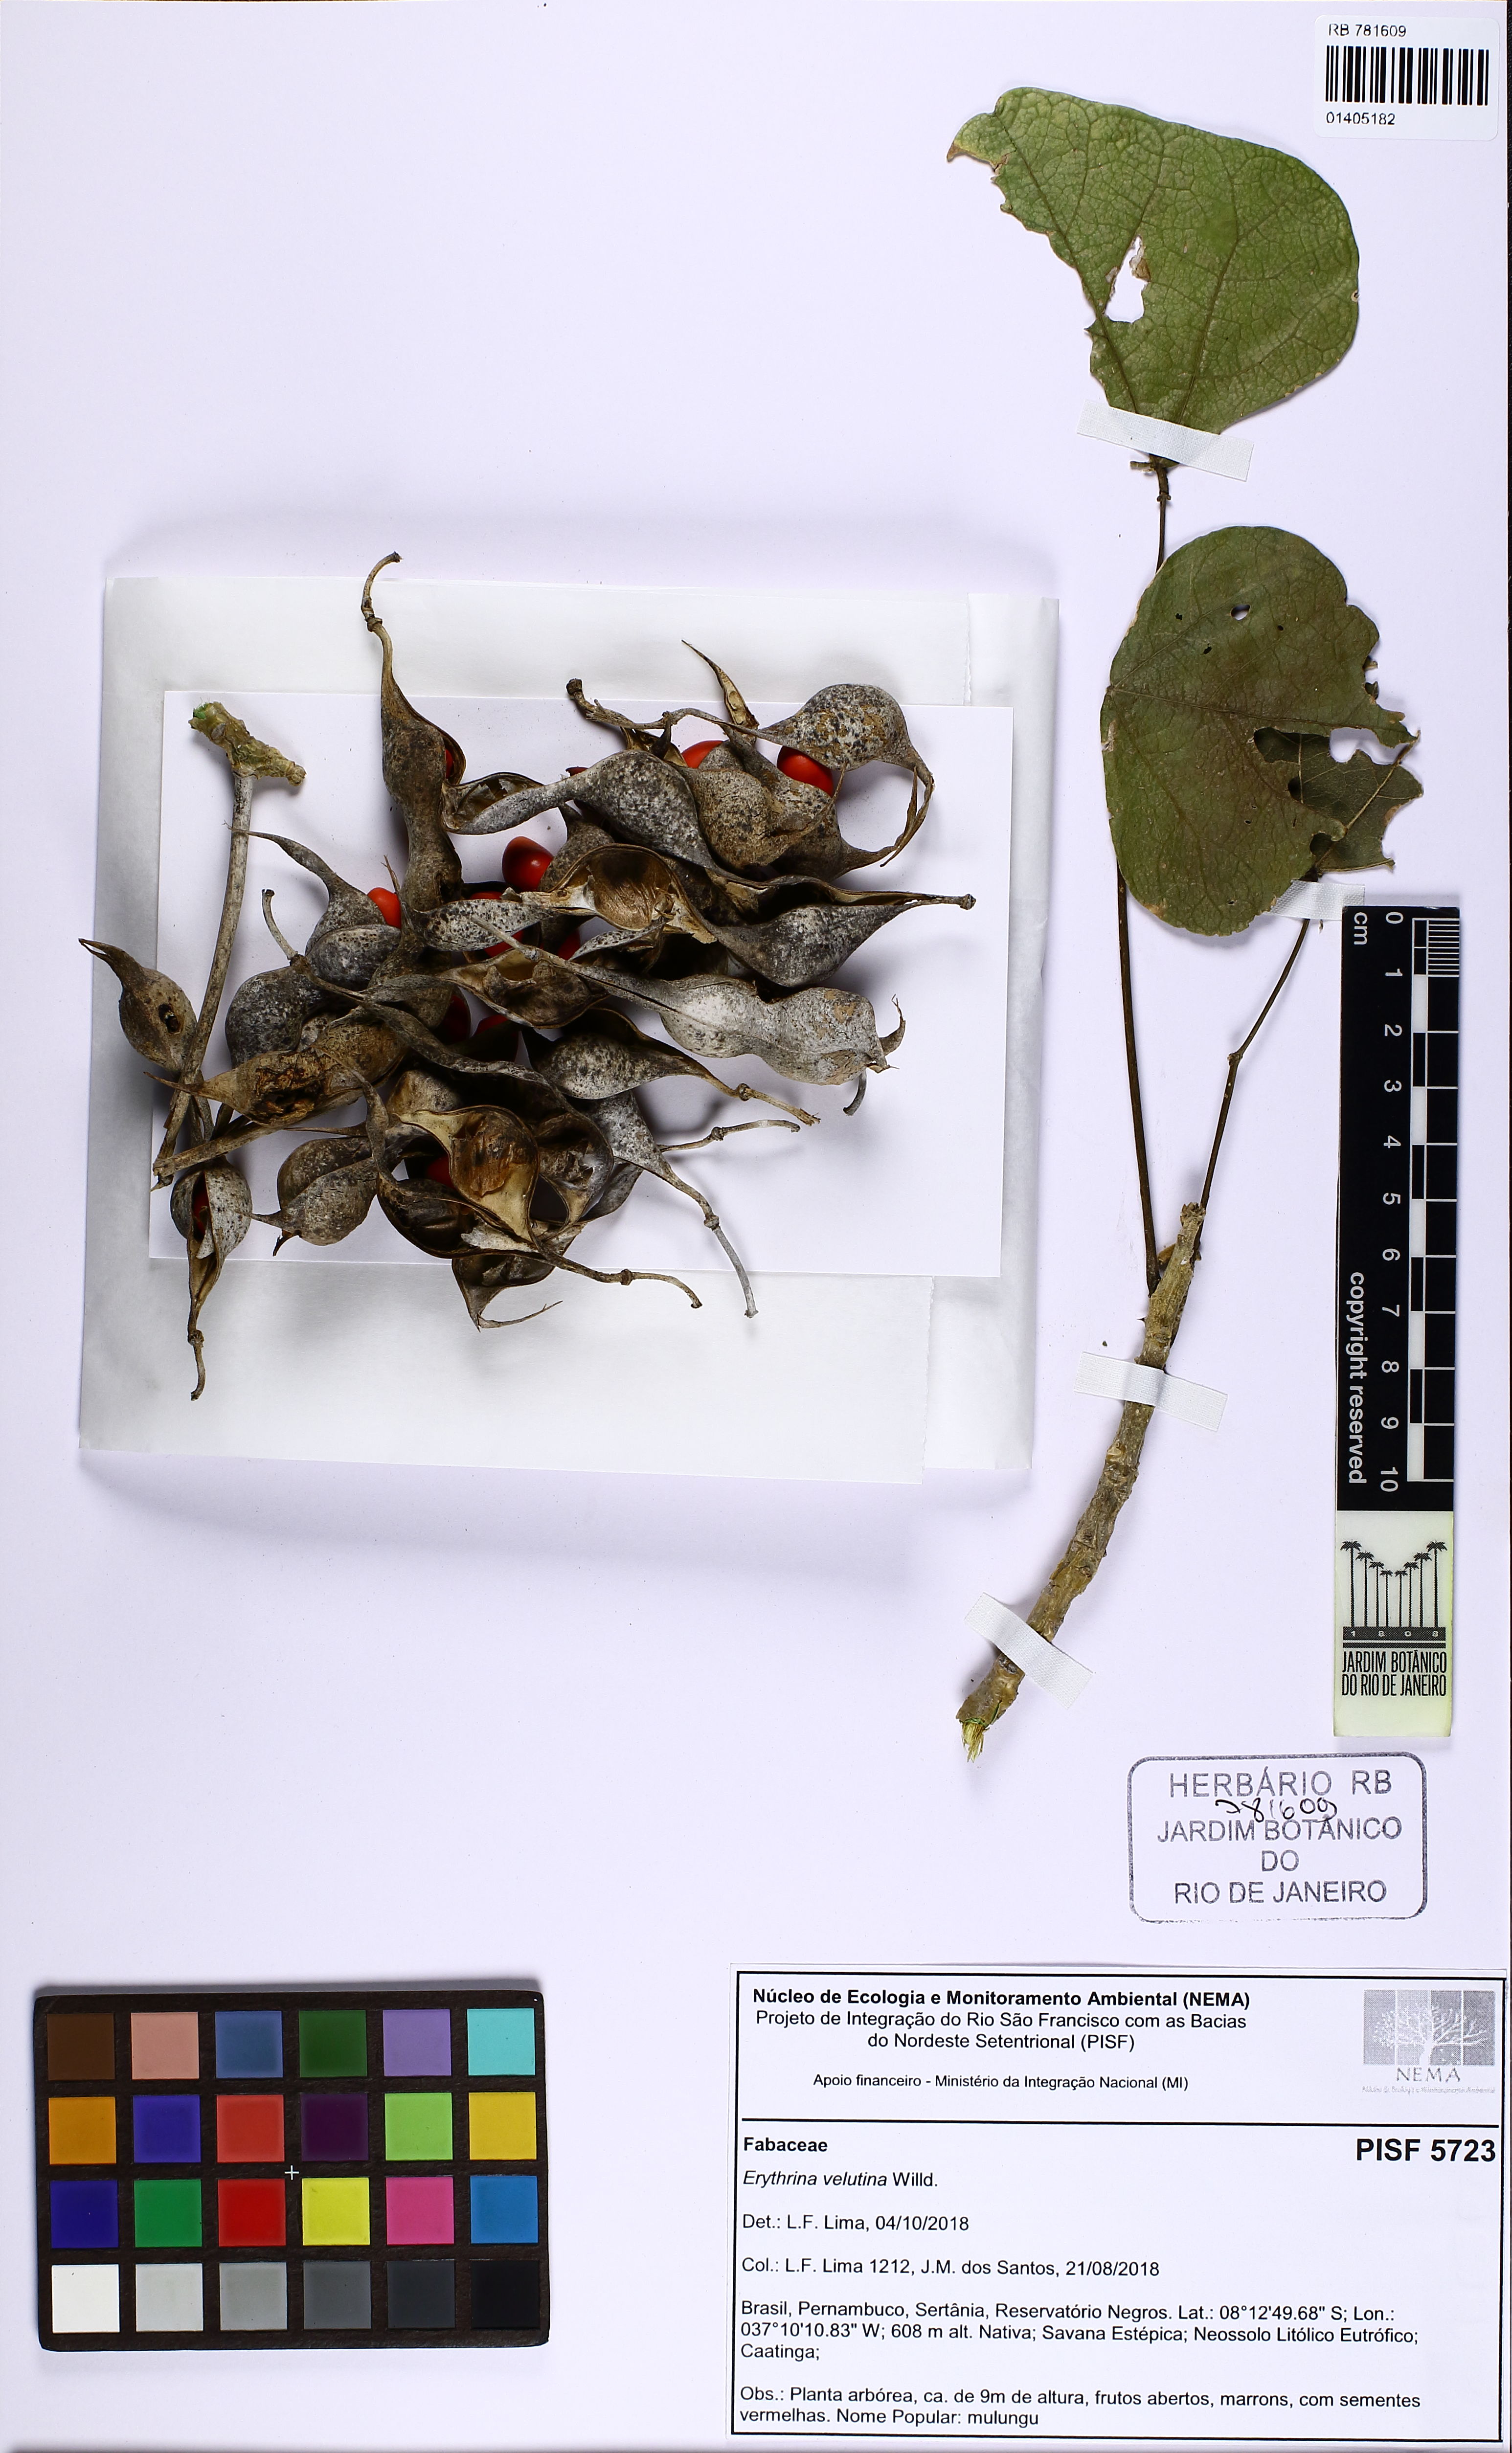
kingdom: Plantae
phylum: Tracheophyta
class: Magnoliopsida
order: Fabales
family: Fabaceae
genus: Erythrina
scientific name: Erythrina velutina
